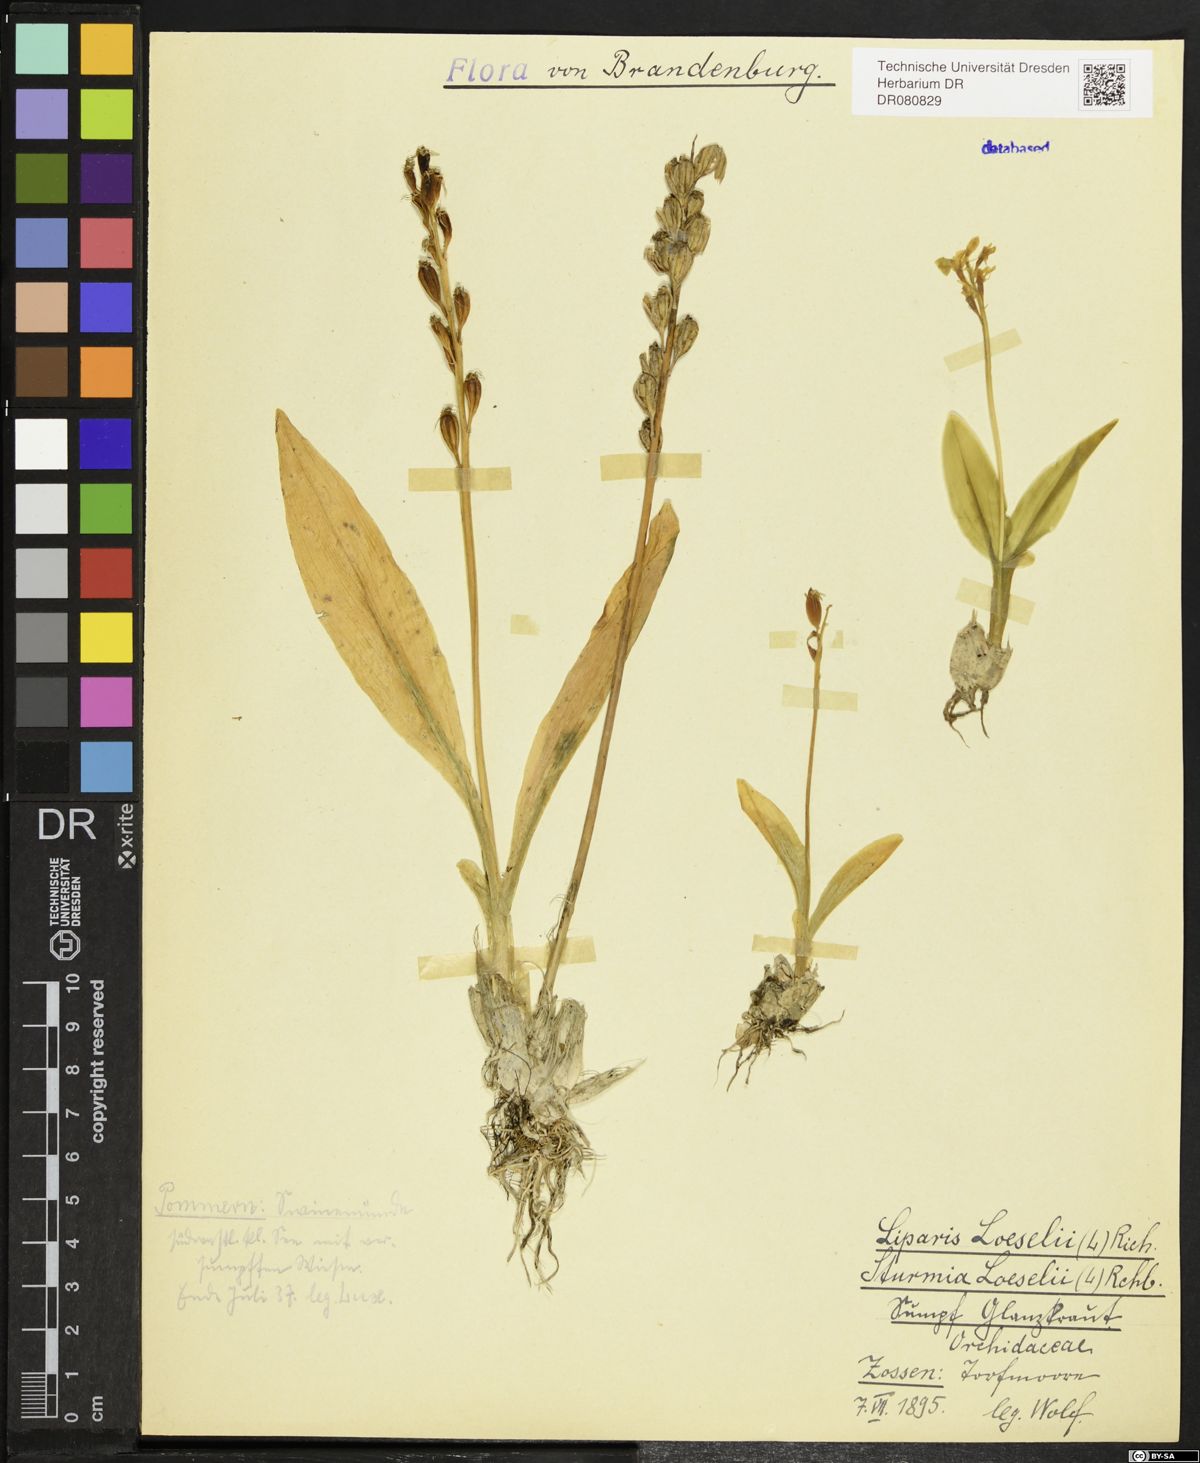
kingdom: Animalia
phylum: Arthropoda
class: Insecta
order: Coleoptera
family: Curculionidae
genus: Liparis
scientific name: Liparis loeselii
